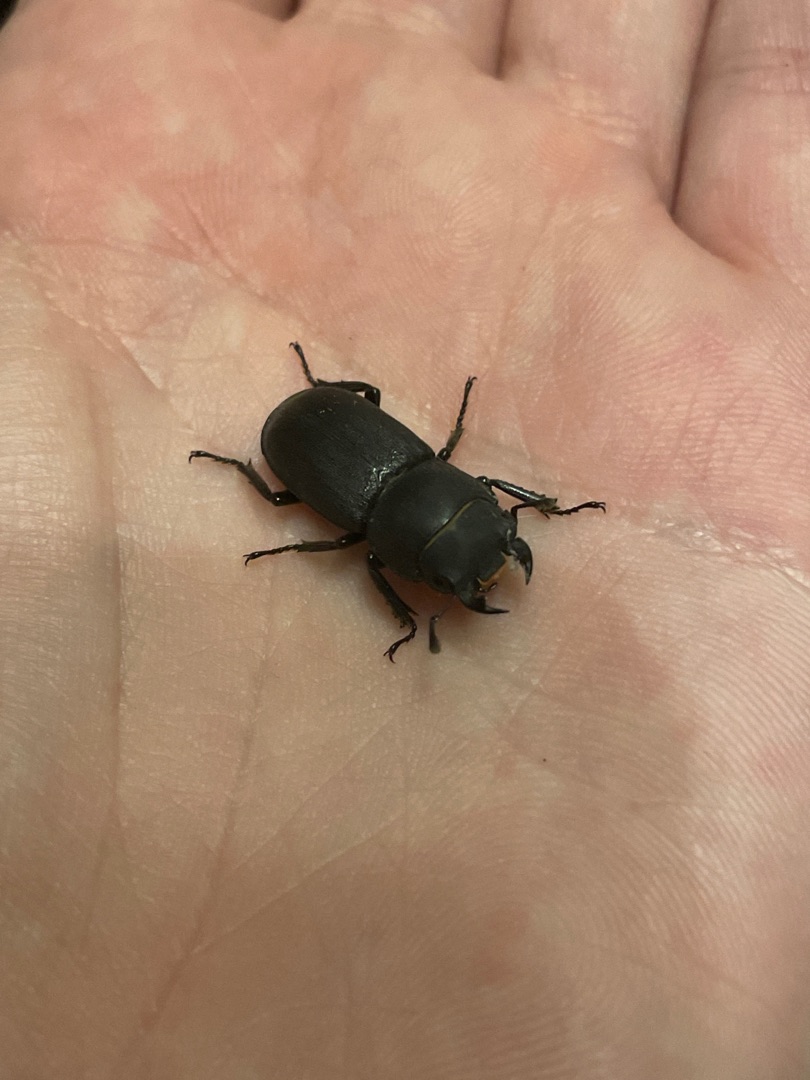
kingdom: Animalia
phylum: Arthropoda
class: Insecta
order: Coleoptera
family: Lucanidae
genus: Dorcus
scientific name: Dorcus parallelipipedus
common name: Bøghjort
